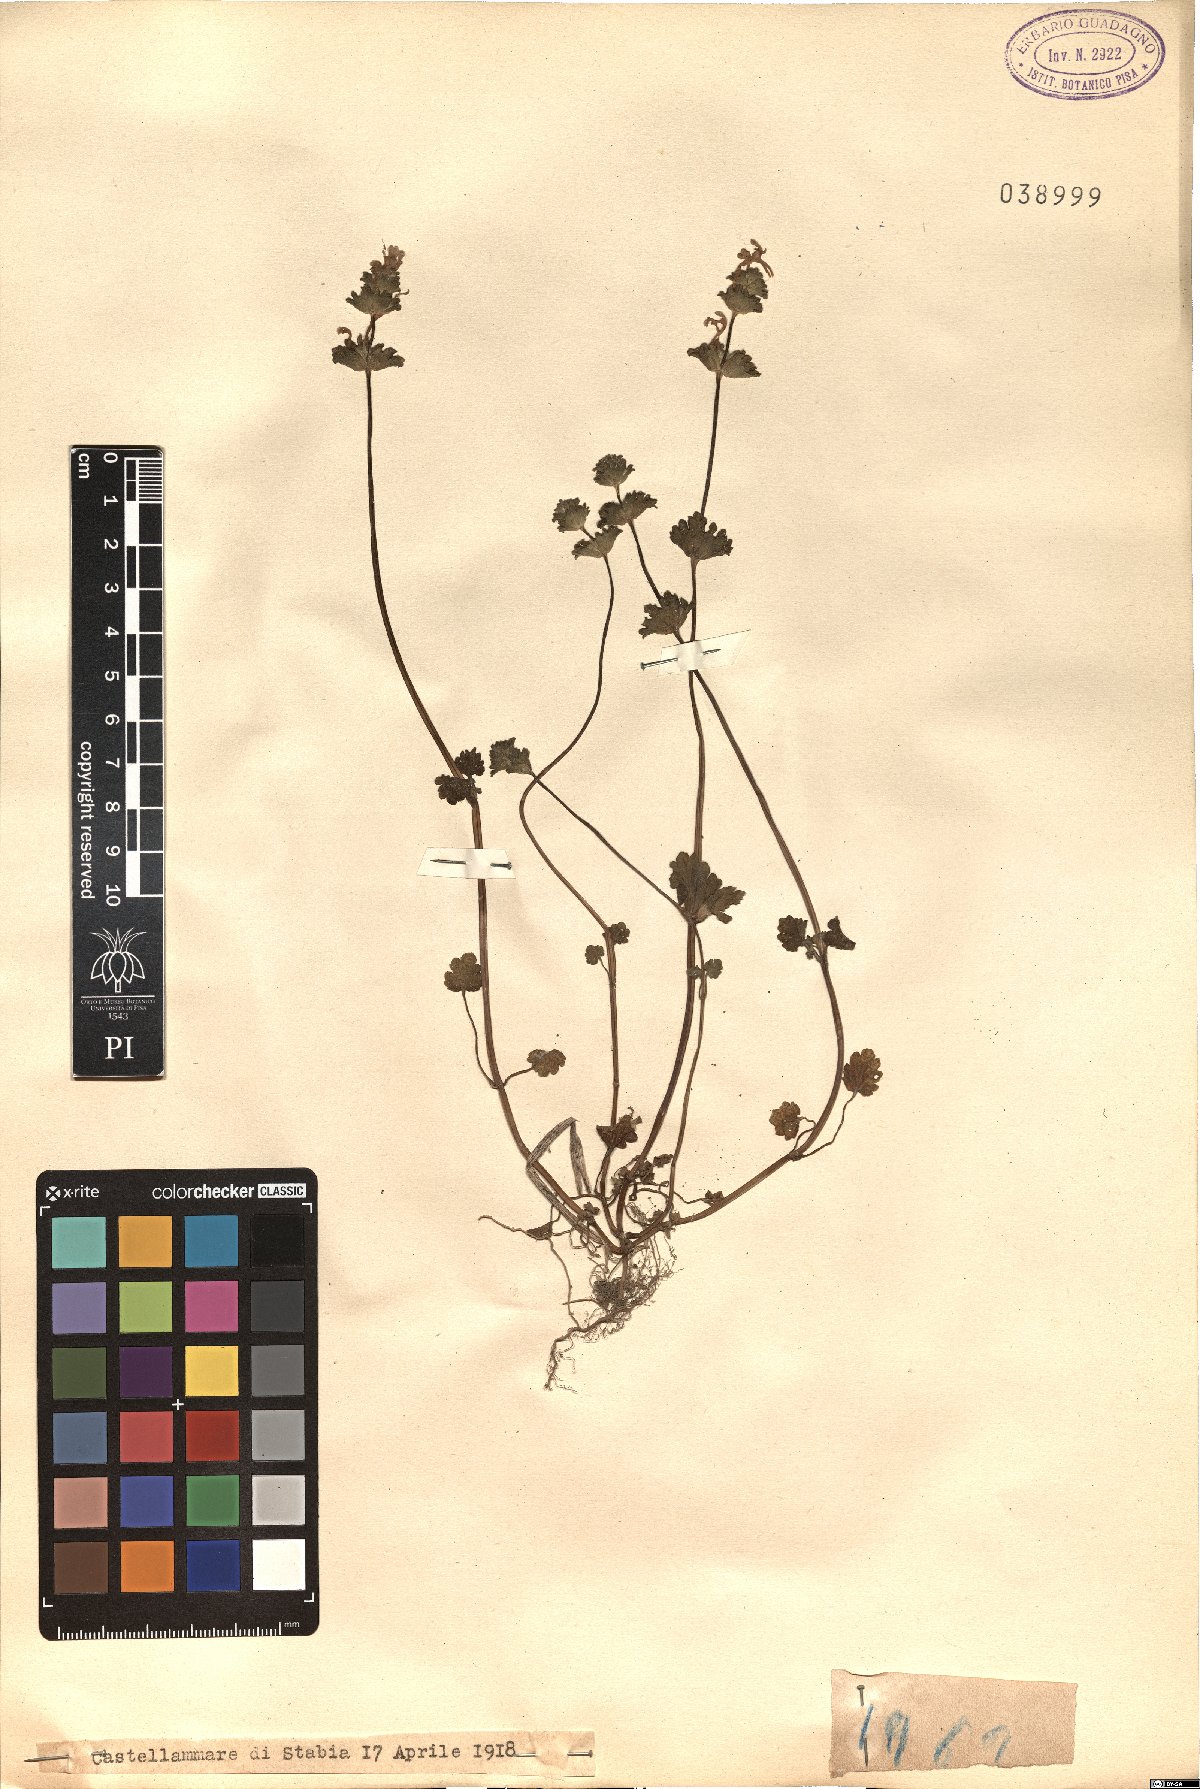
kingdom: Plantae
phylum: Tracheophyta
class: Magnoliopsida
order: Lamiales
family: Lamiaceae
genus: Ballota
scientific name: Ballota
